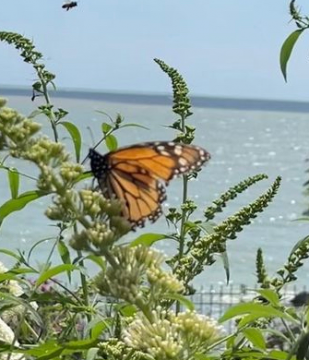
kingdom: Animalia
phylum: Arthropoda
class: Insecta
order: Lepidoptera
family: Nymphalidae
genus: Danaus
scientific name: Danaus plexippus
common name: Monarch
